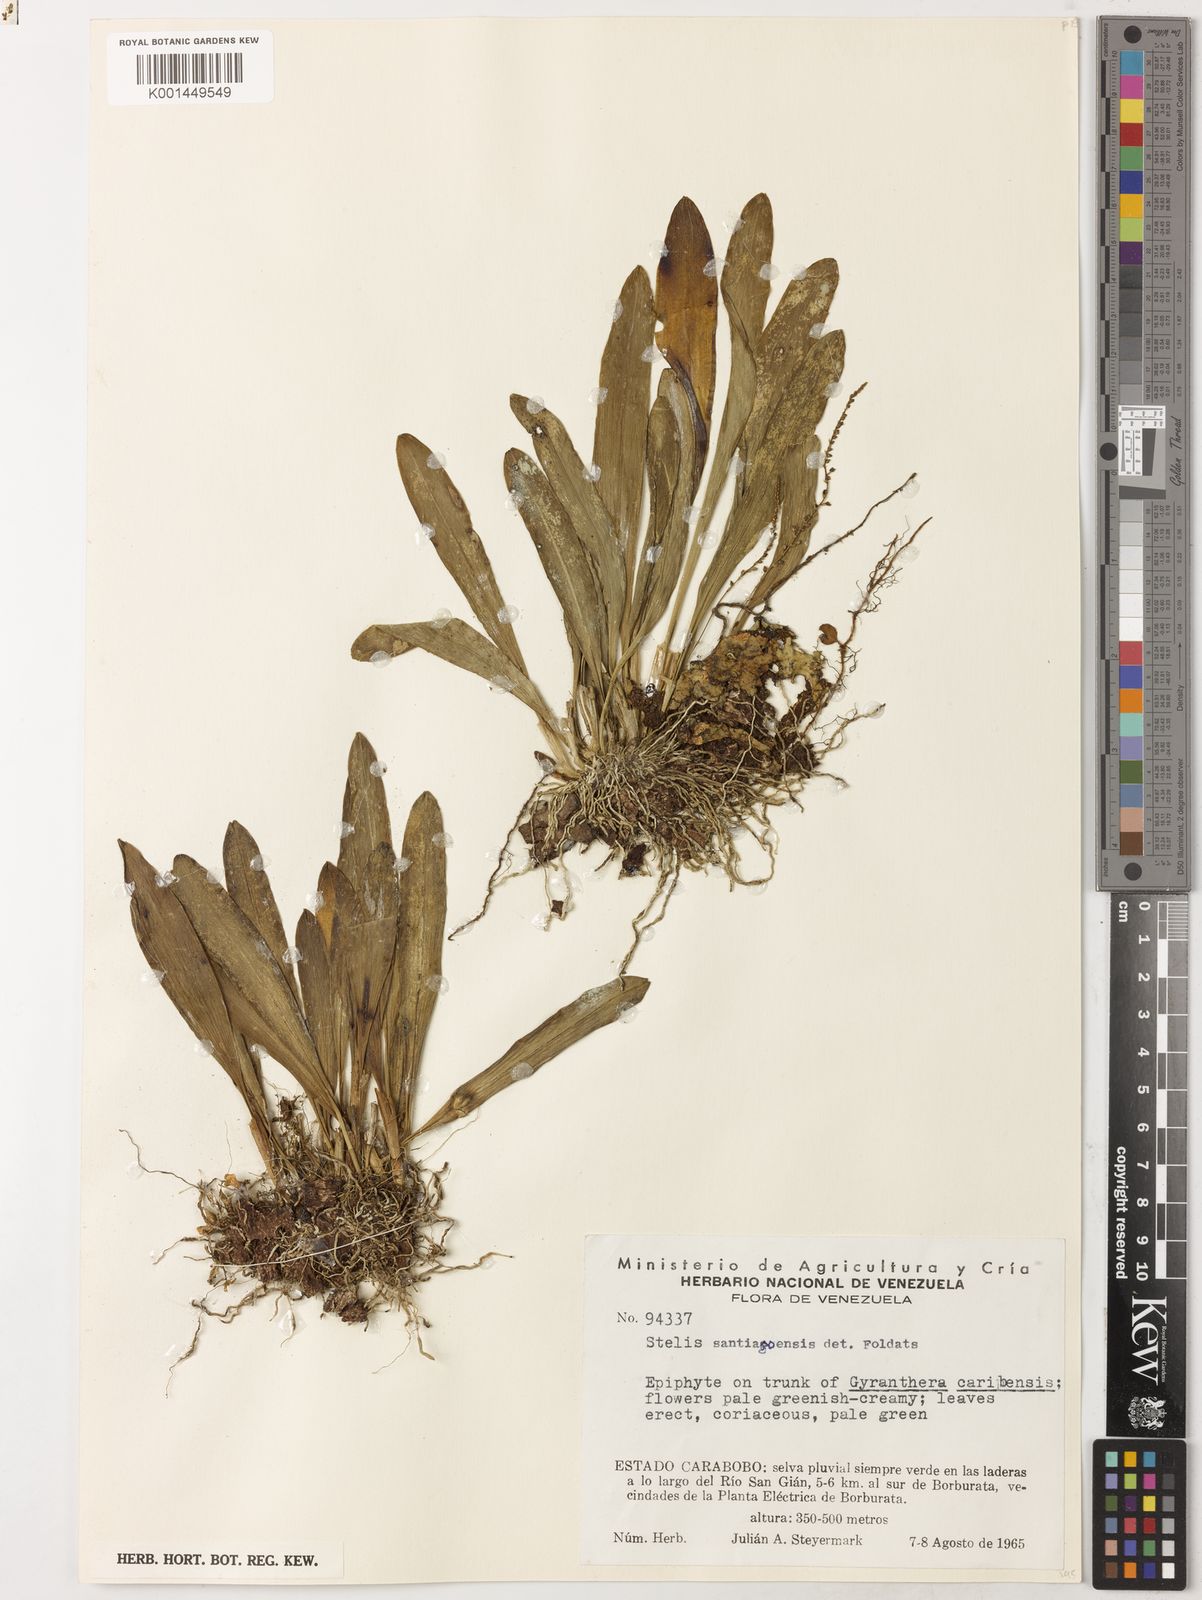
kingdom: Plantae
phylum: Tracheophyta
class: Liliopsida
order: Asparagales
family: Orchidaceae
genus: Stelis
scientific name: Stelis santiagoensis
